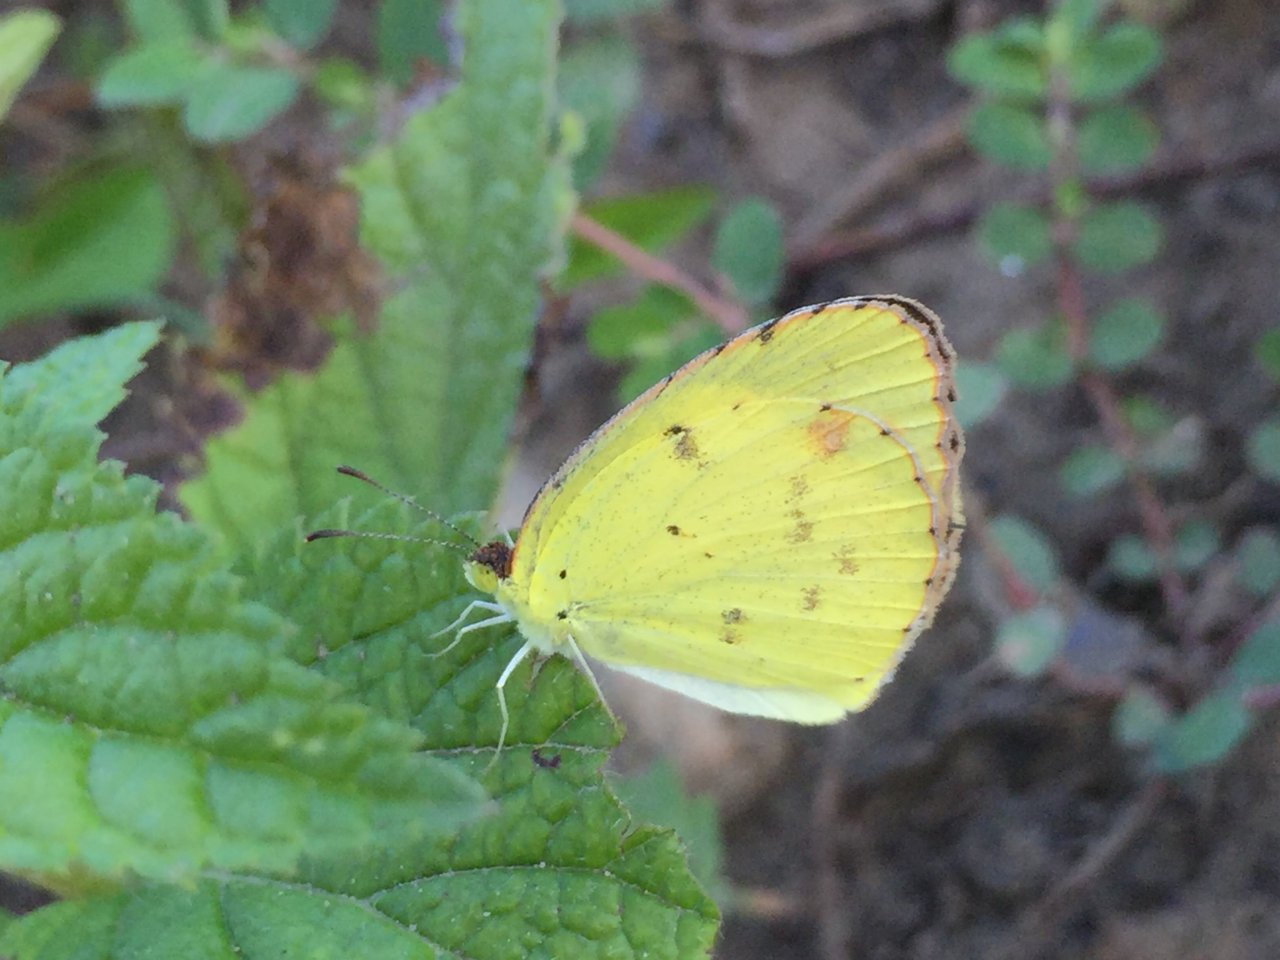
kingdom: Animalia
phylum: Arthropoda
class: Insecta
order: Lepidoptera
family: Pieridae
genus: Pyrisitia
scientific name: Pyrisitia lisa
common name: Little Yellow
